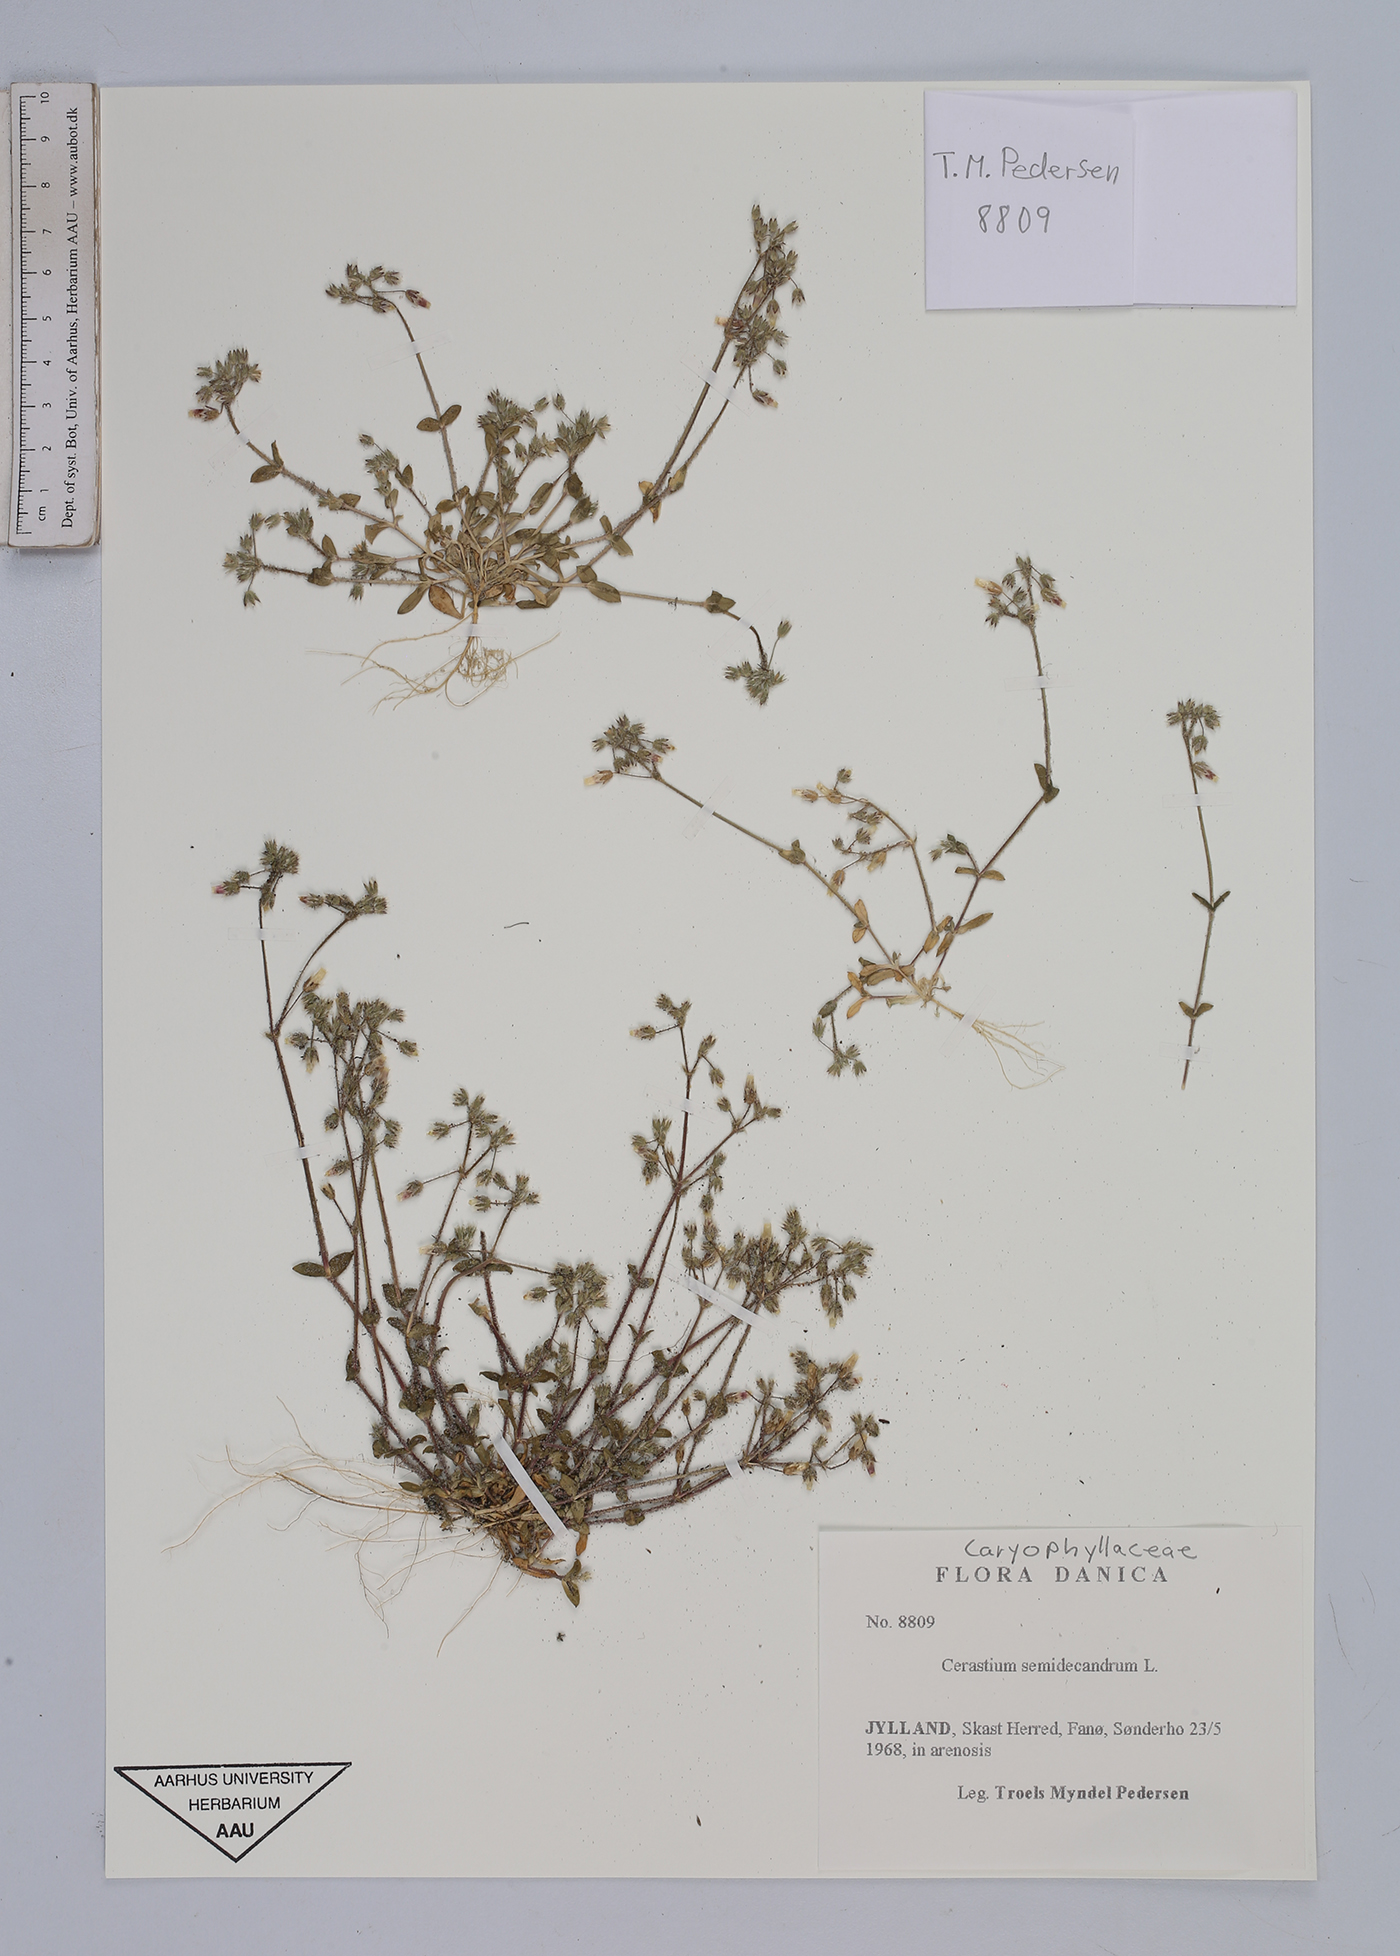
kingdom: Plantae
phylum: Tracheophyta
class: Magnoliopsida
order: Caryophyllales
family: Caryophyllaceae
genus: Cerastium
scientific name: Cerastium semidecandrum
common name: Little mouse-ear
